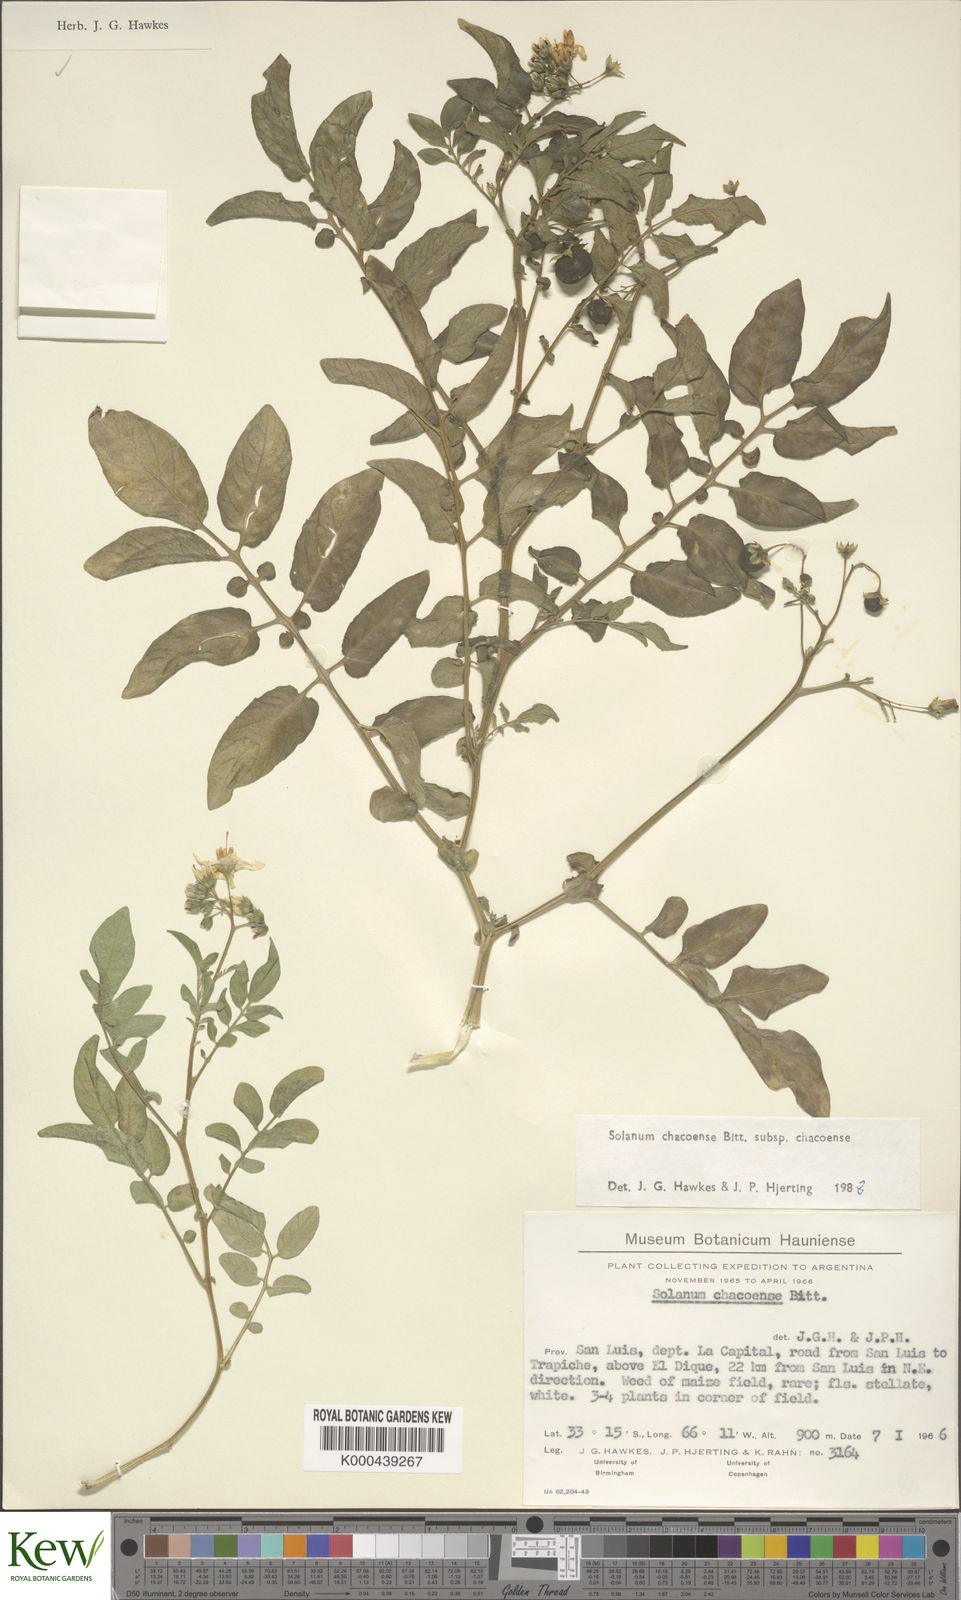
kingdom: Plantae
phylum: Tracheophyta
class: Magnoliopsida
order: Solanales
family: Solanaceae
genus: Solanum
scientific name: Solanum chacoense
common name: Chaco potato
